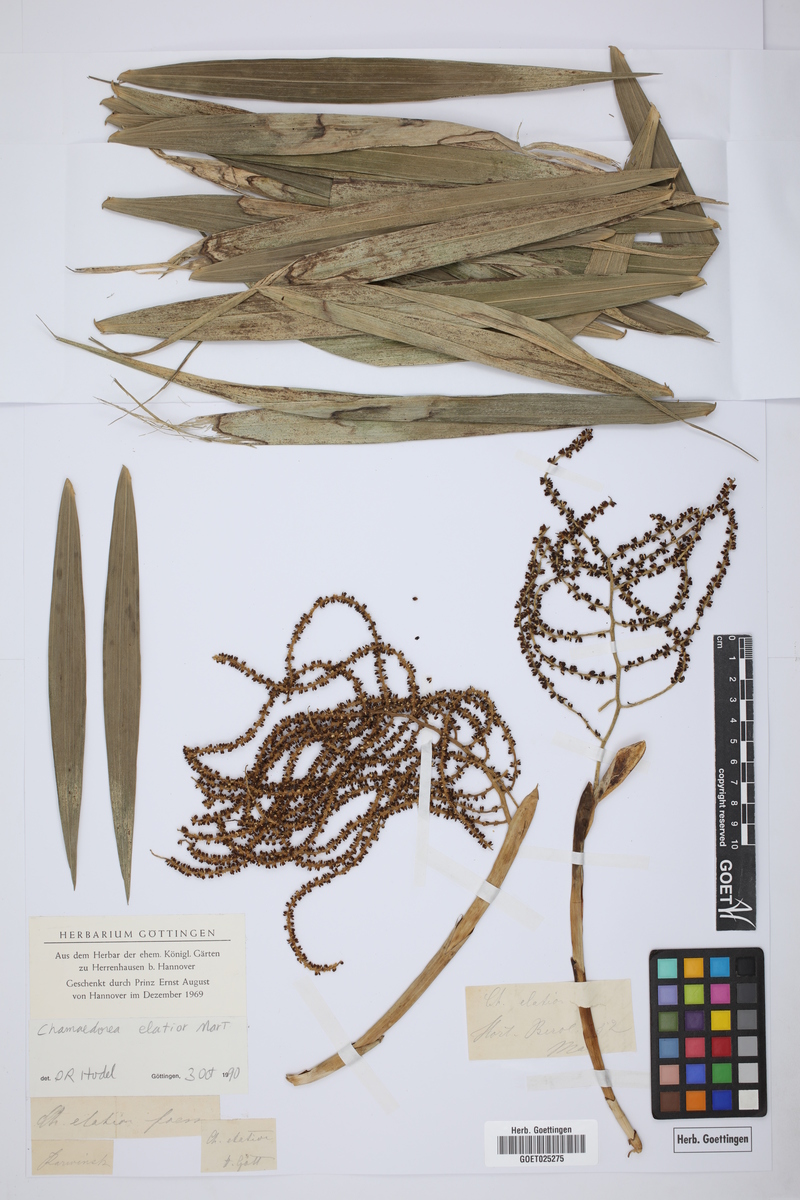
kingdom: Plantae
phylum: Tracheophyta
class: Liliopsida
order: Arecales
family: Arecaceae
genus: Chamaedorea
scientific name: Chamaedorea elatior
